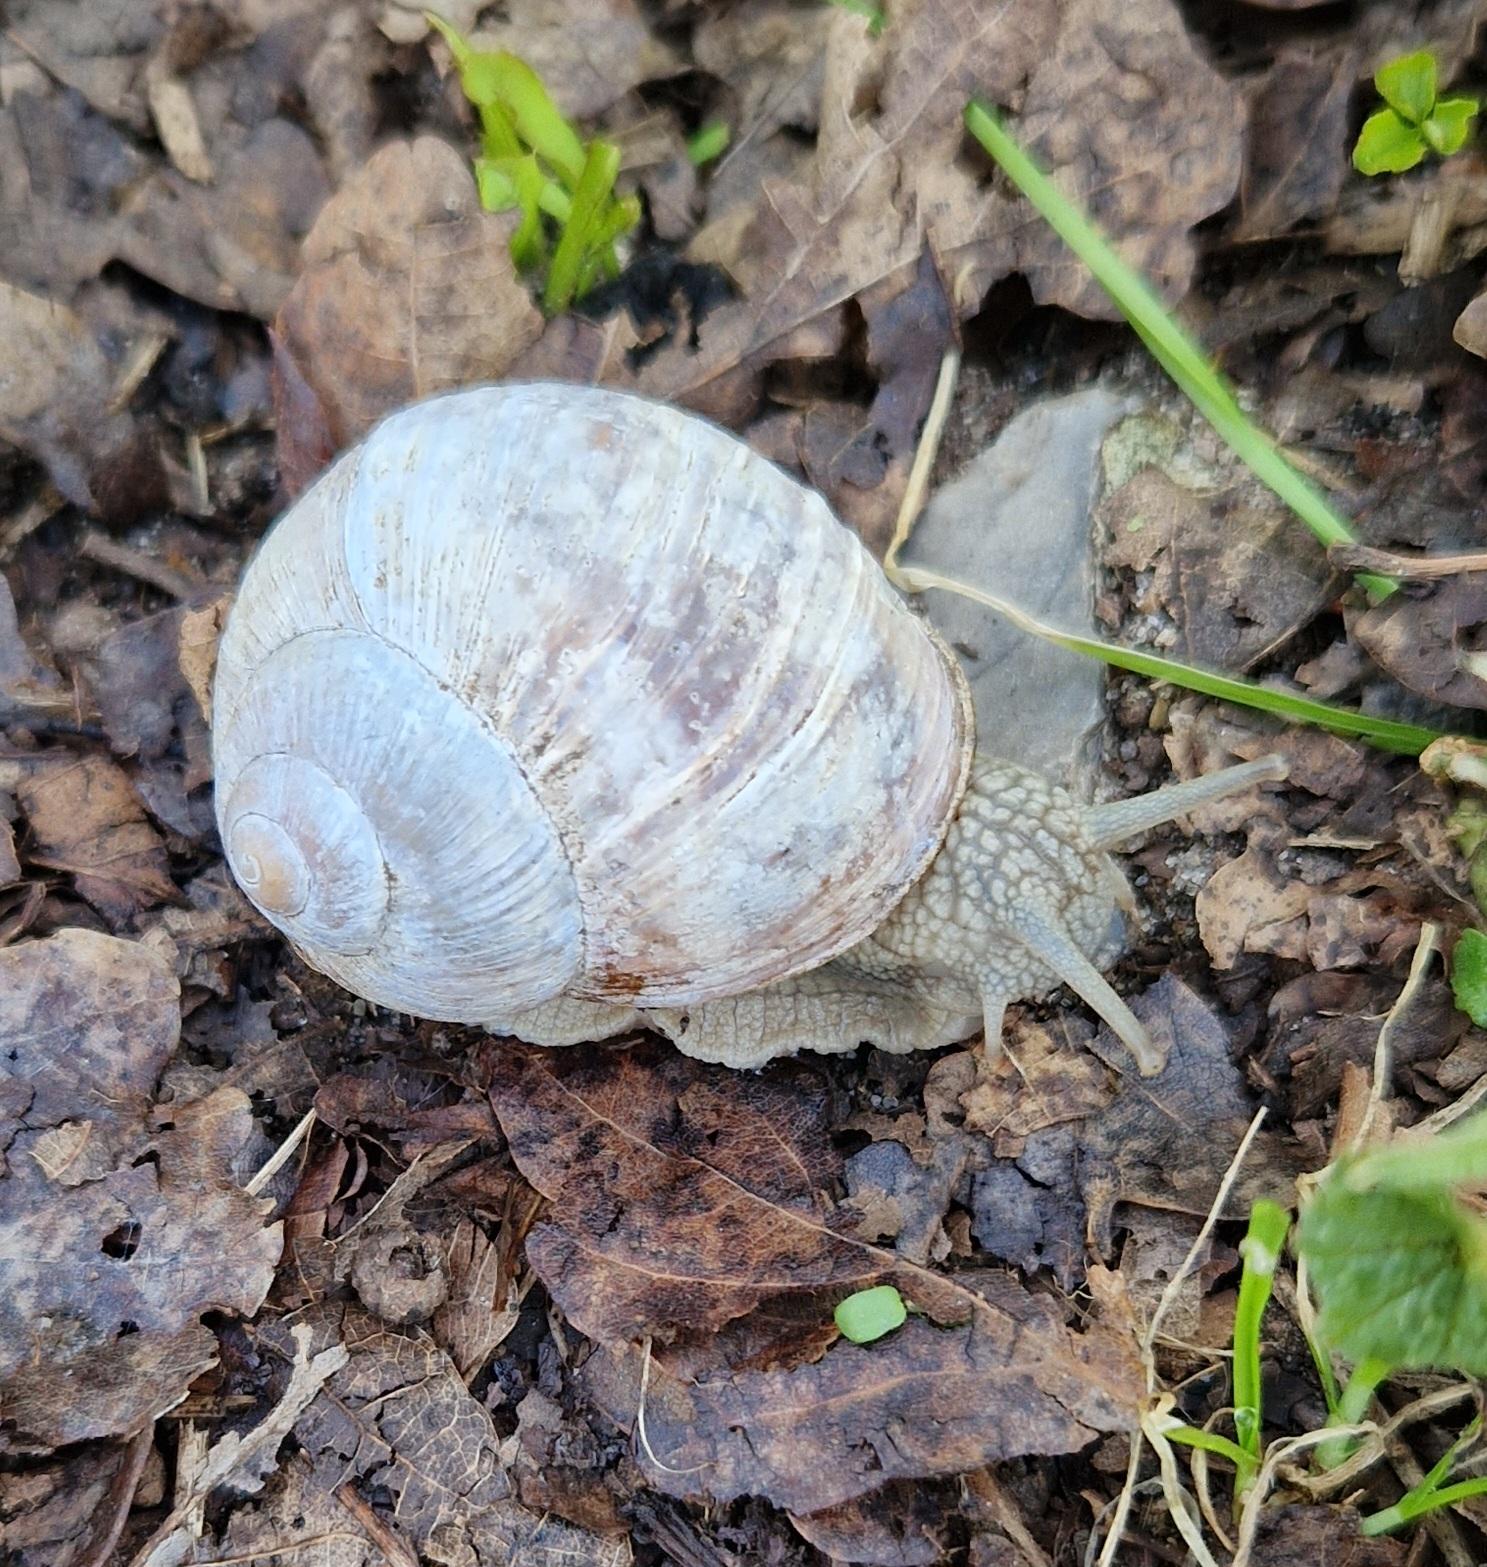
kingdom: Animalia
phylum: Mollusca
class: Gastropoda
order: Stylommatophora
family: Helicidae
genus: Helix
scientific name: Helix pomatia
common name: Vinbjergsnegl
